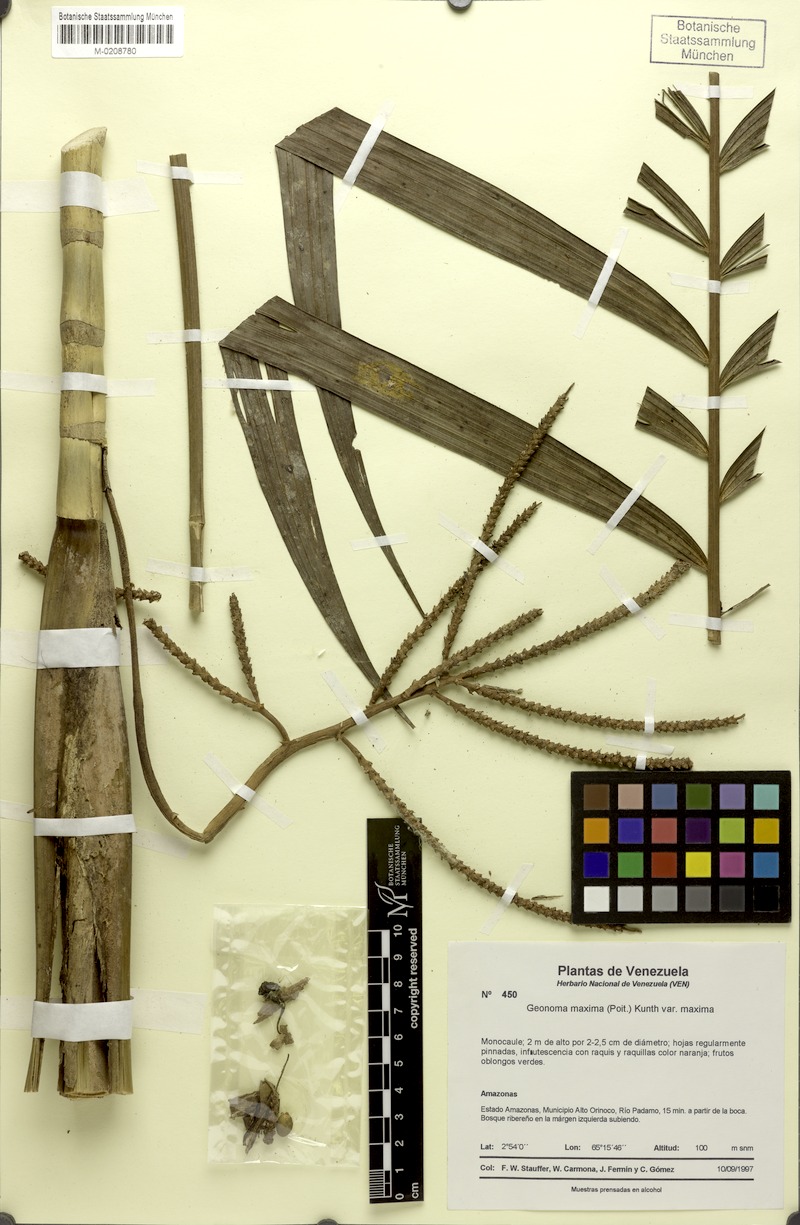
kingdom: Plantae
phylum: Tracheophyta
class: Liliopsida
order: Arecales
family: Arecaceae
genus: Geonoma
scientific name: Geonoma maxima
